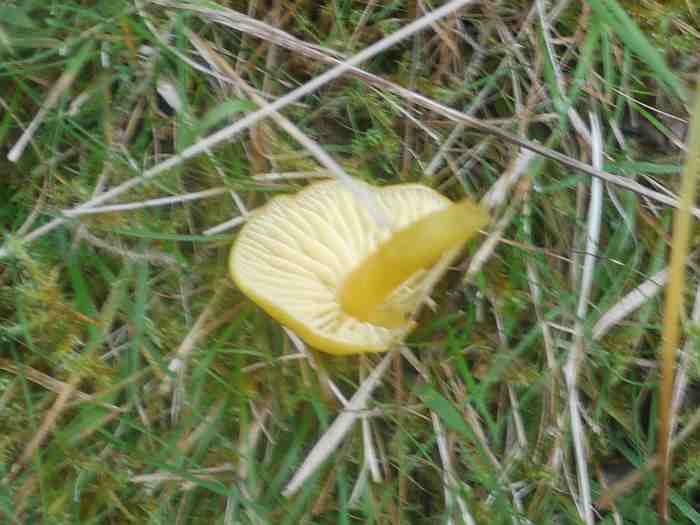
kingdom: Fungi
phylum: Basidiomycota
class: Agaricomycetes
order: Agaricales
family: Hygrophoraceae
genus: Hygrocybe
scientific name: Hygrocybe chlorophana
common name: gul vokshat
